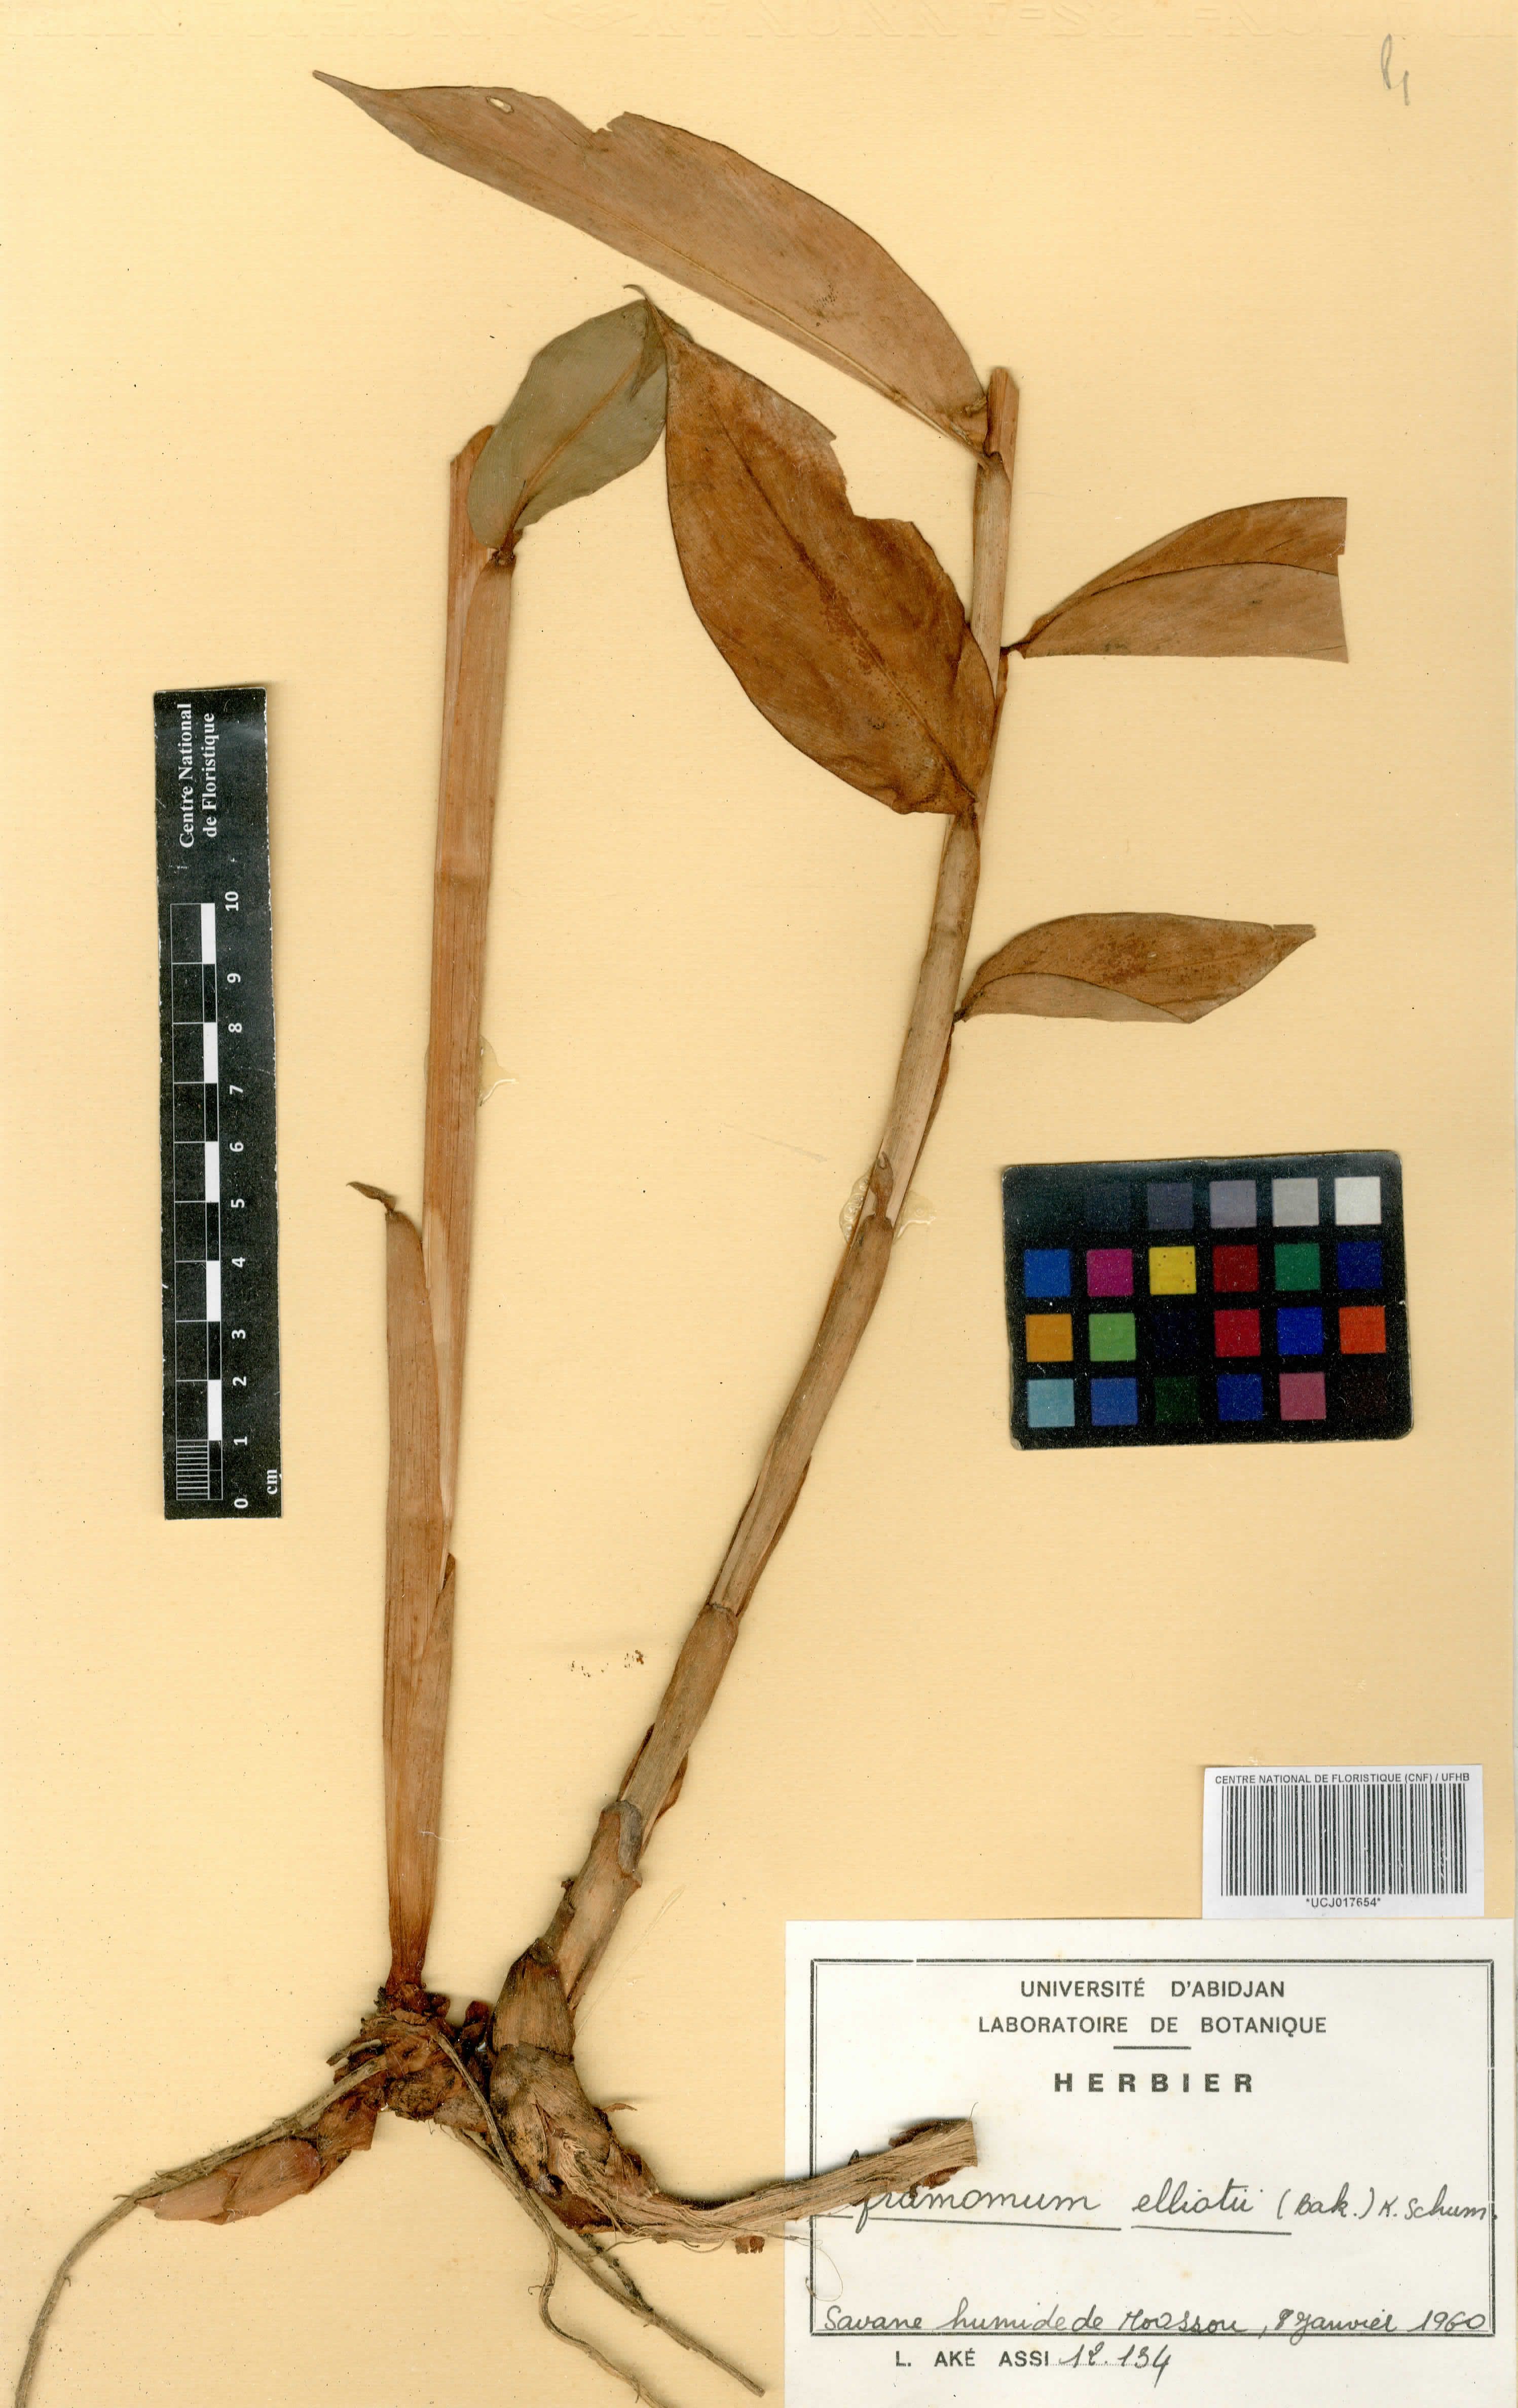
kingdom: Plantae
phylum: Tracheophyta
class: Liliopsida
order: Zingiberales
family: Zingiberaceae
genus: Aframomum
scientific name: Aframomum elliottii
